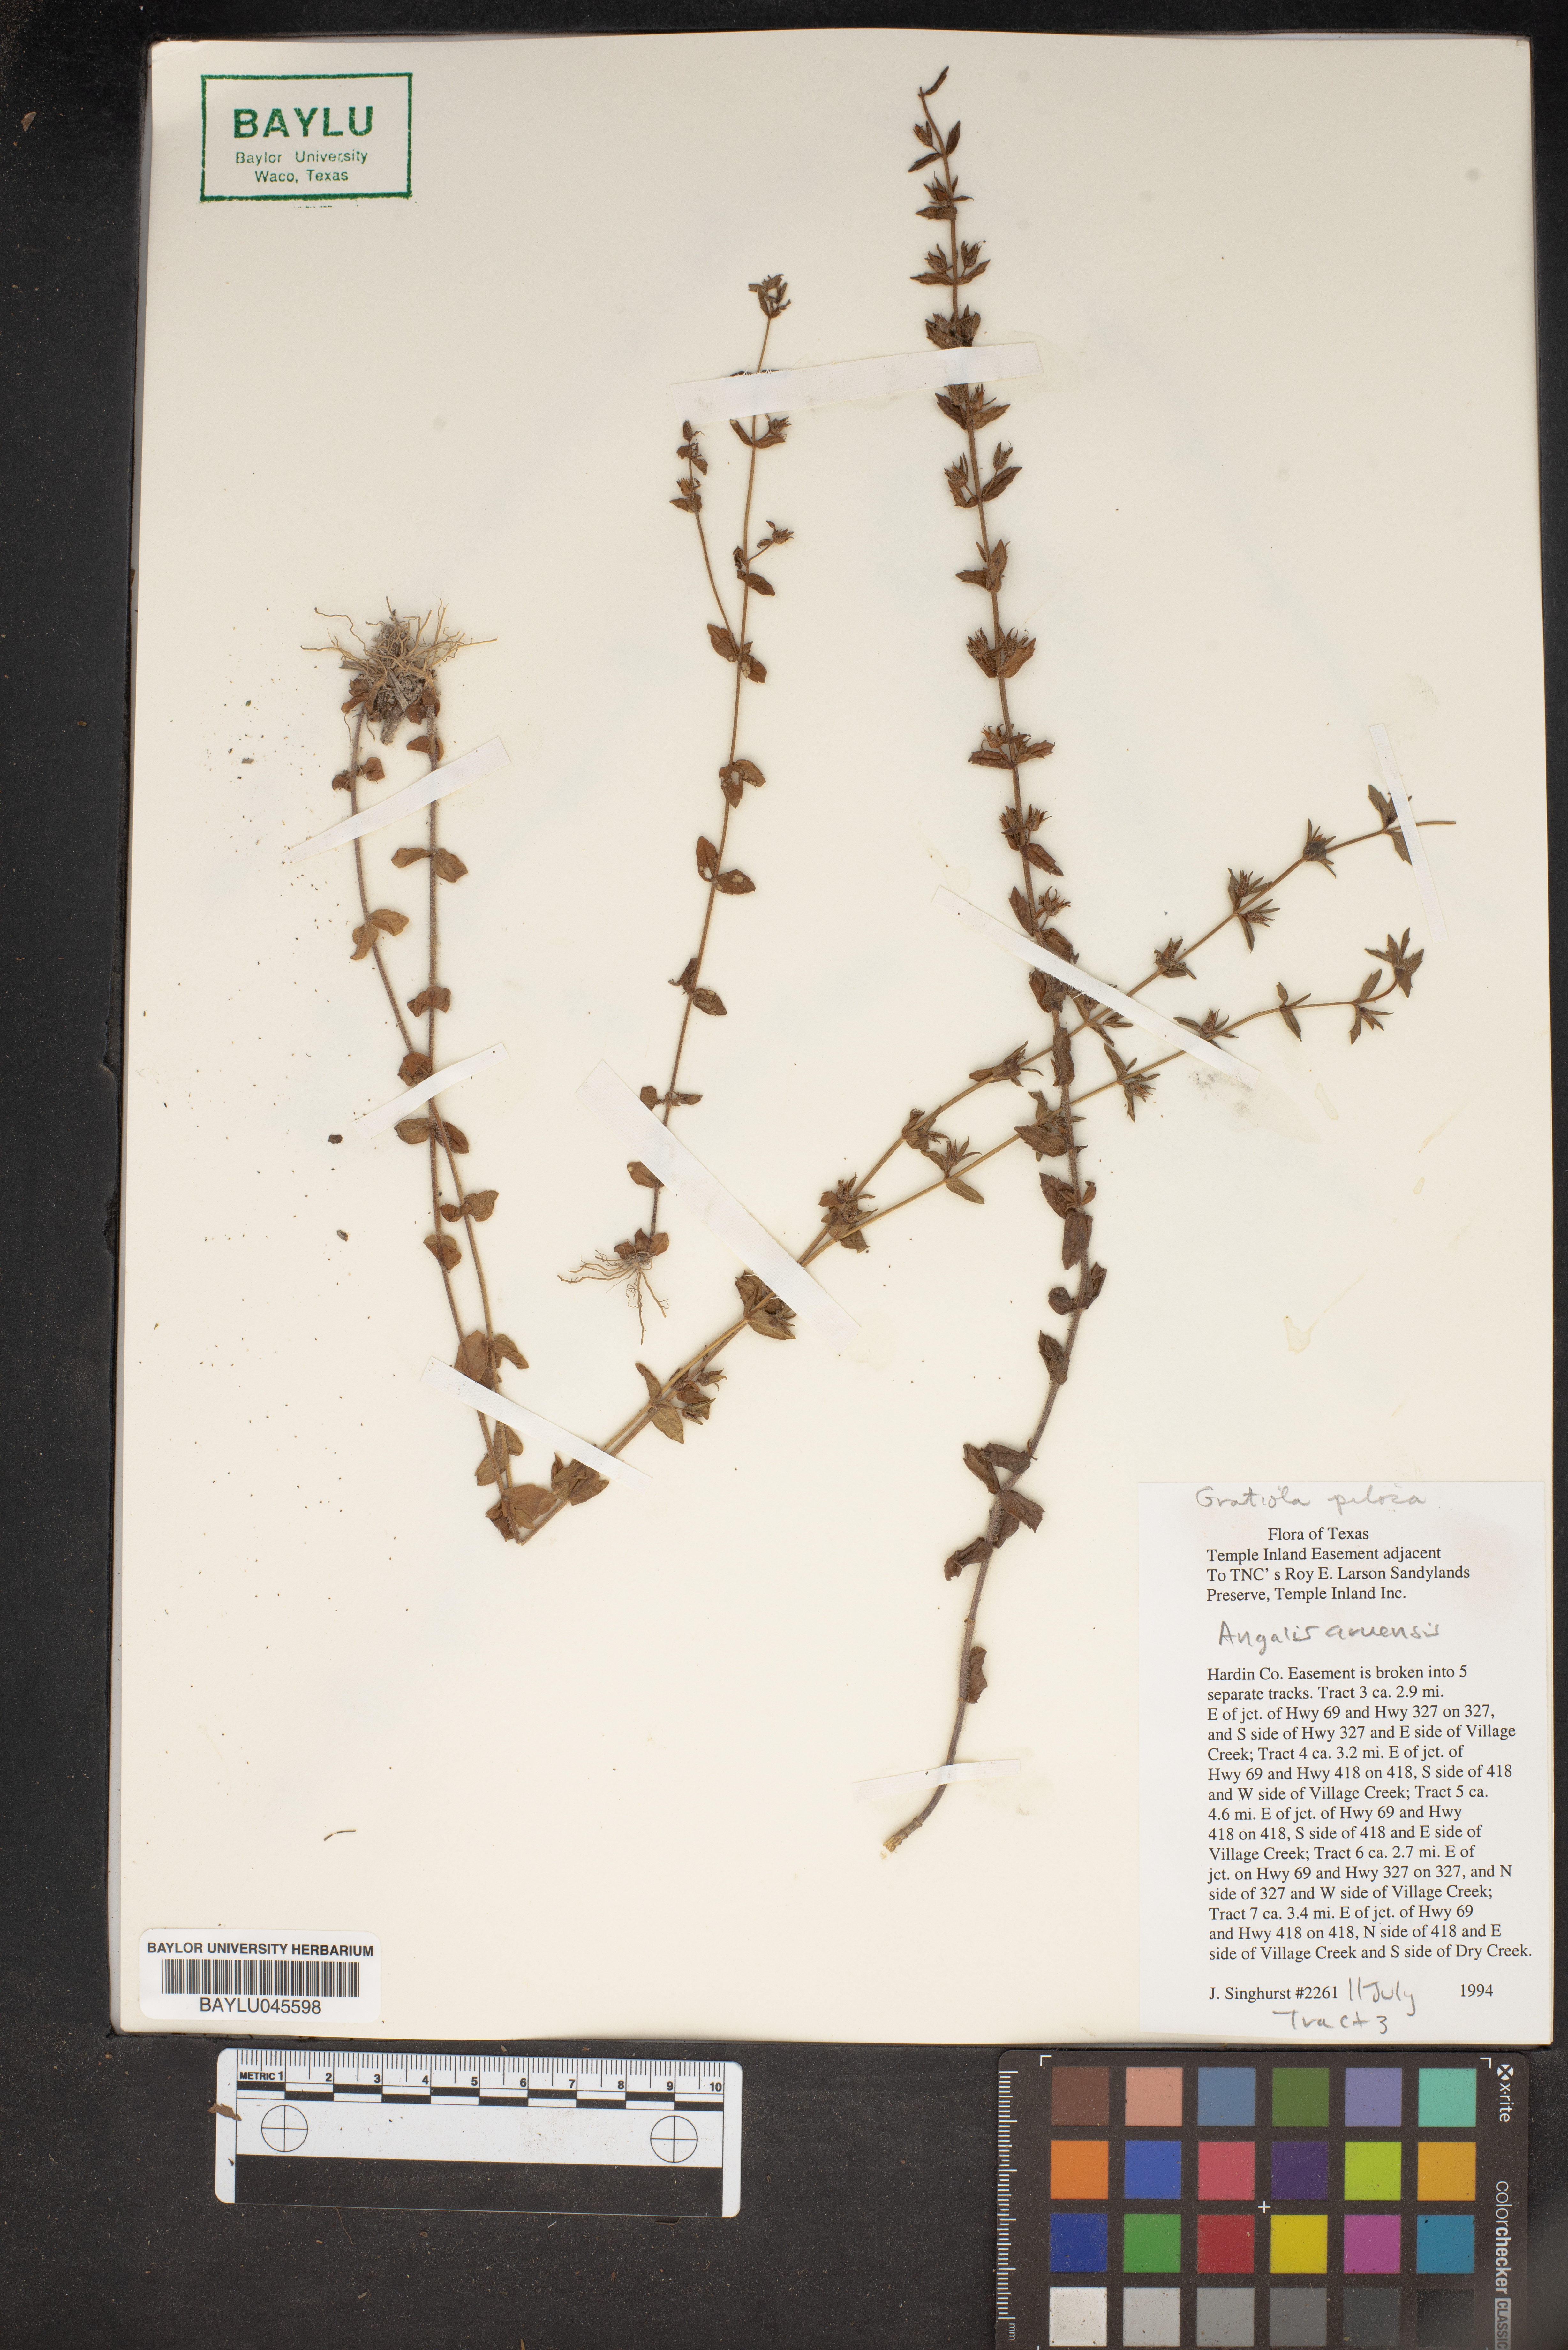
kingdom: Plantae
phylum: Tracheophyta
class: Magnoliopsida
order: Ericales
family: Primulaceae
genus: Lysimachia
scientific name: Lysimachia arvensis
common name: Scarlet pimpernel
